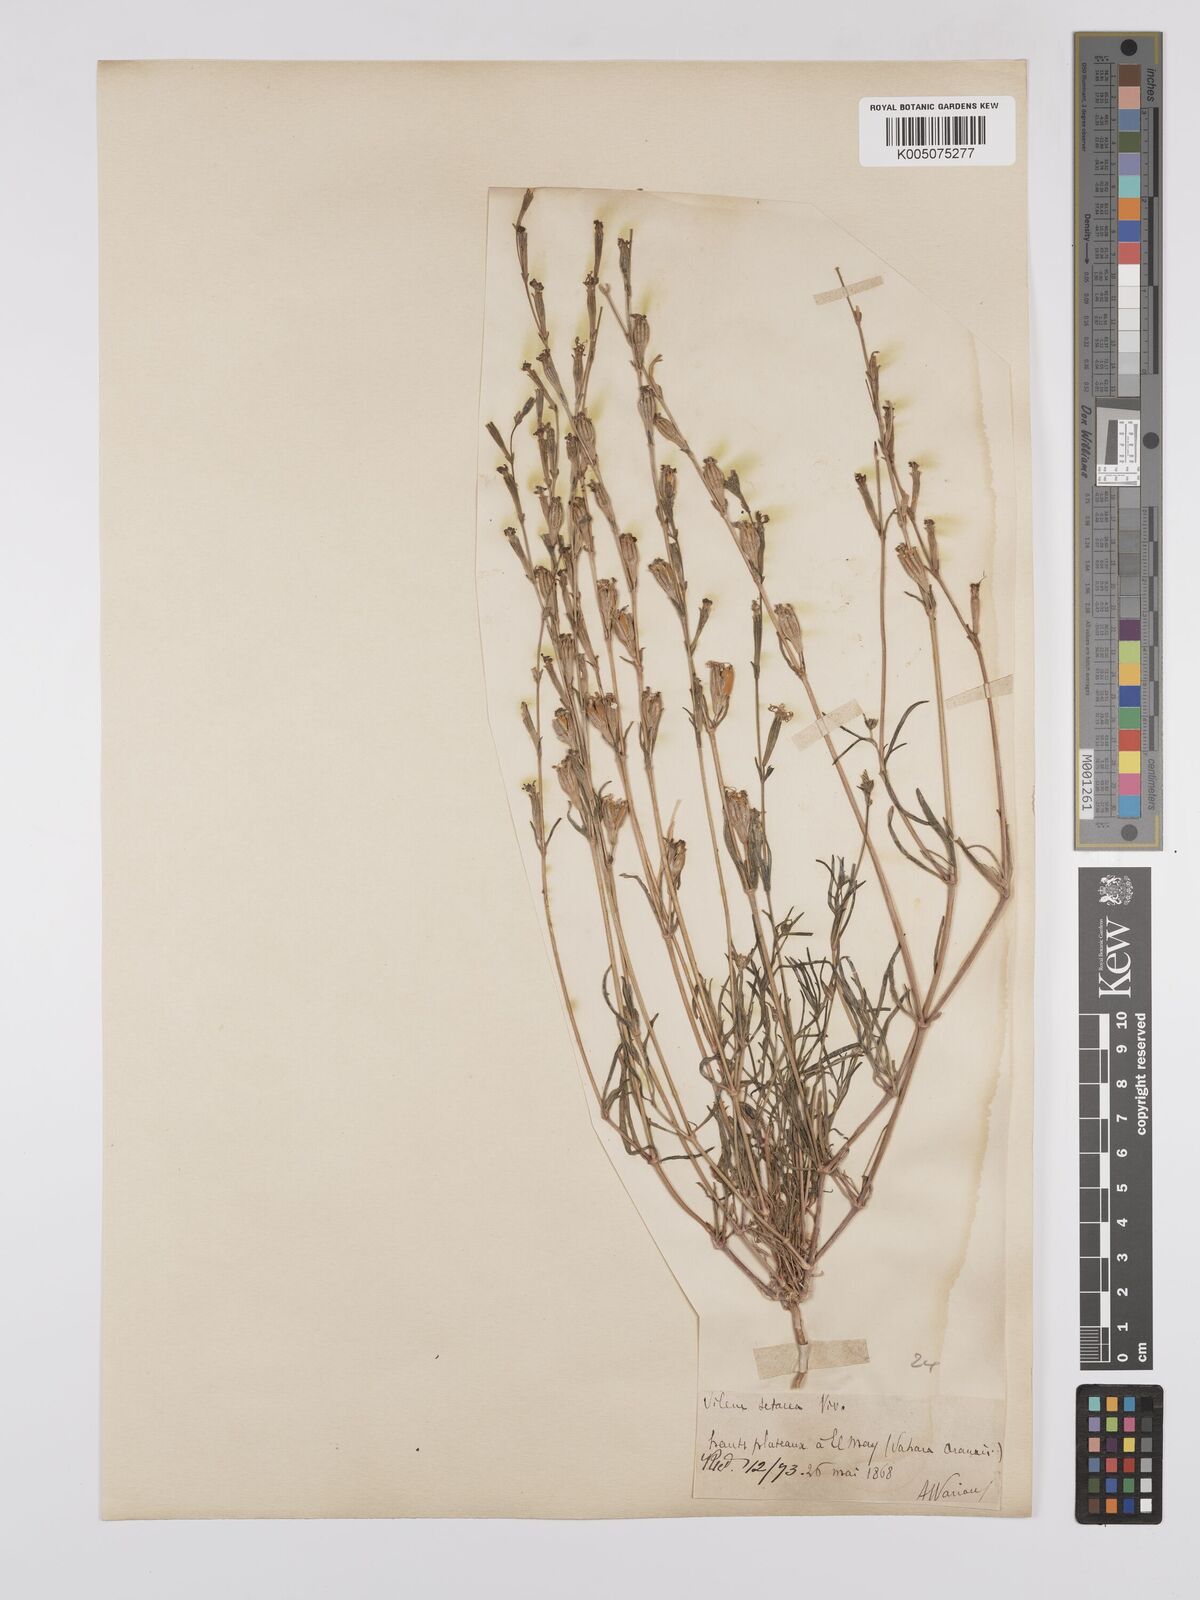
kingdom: Plantae
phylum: Tracheophyta
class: Magnoliopsida
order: Caryophyllales
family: Caryophyllaceae
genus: Silene
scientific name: Silene vivianii
